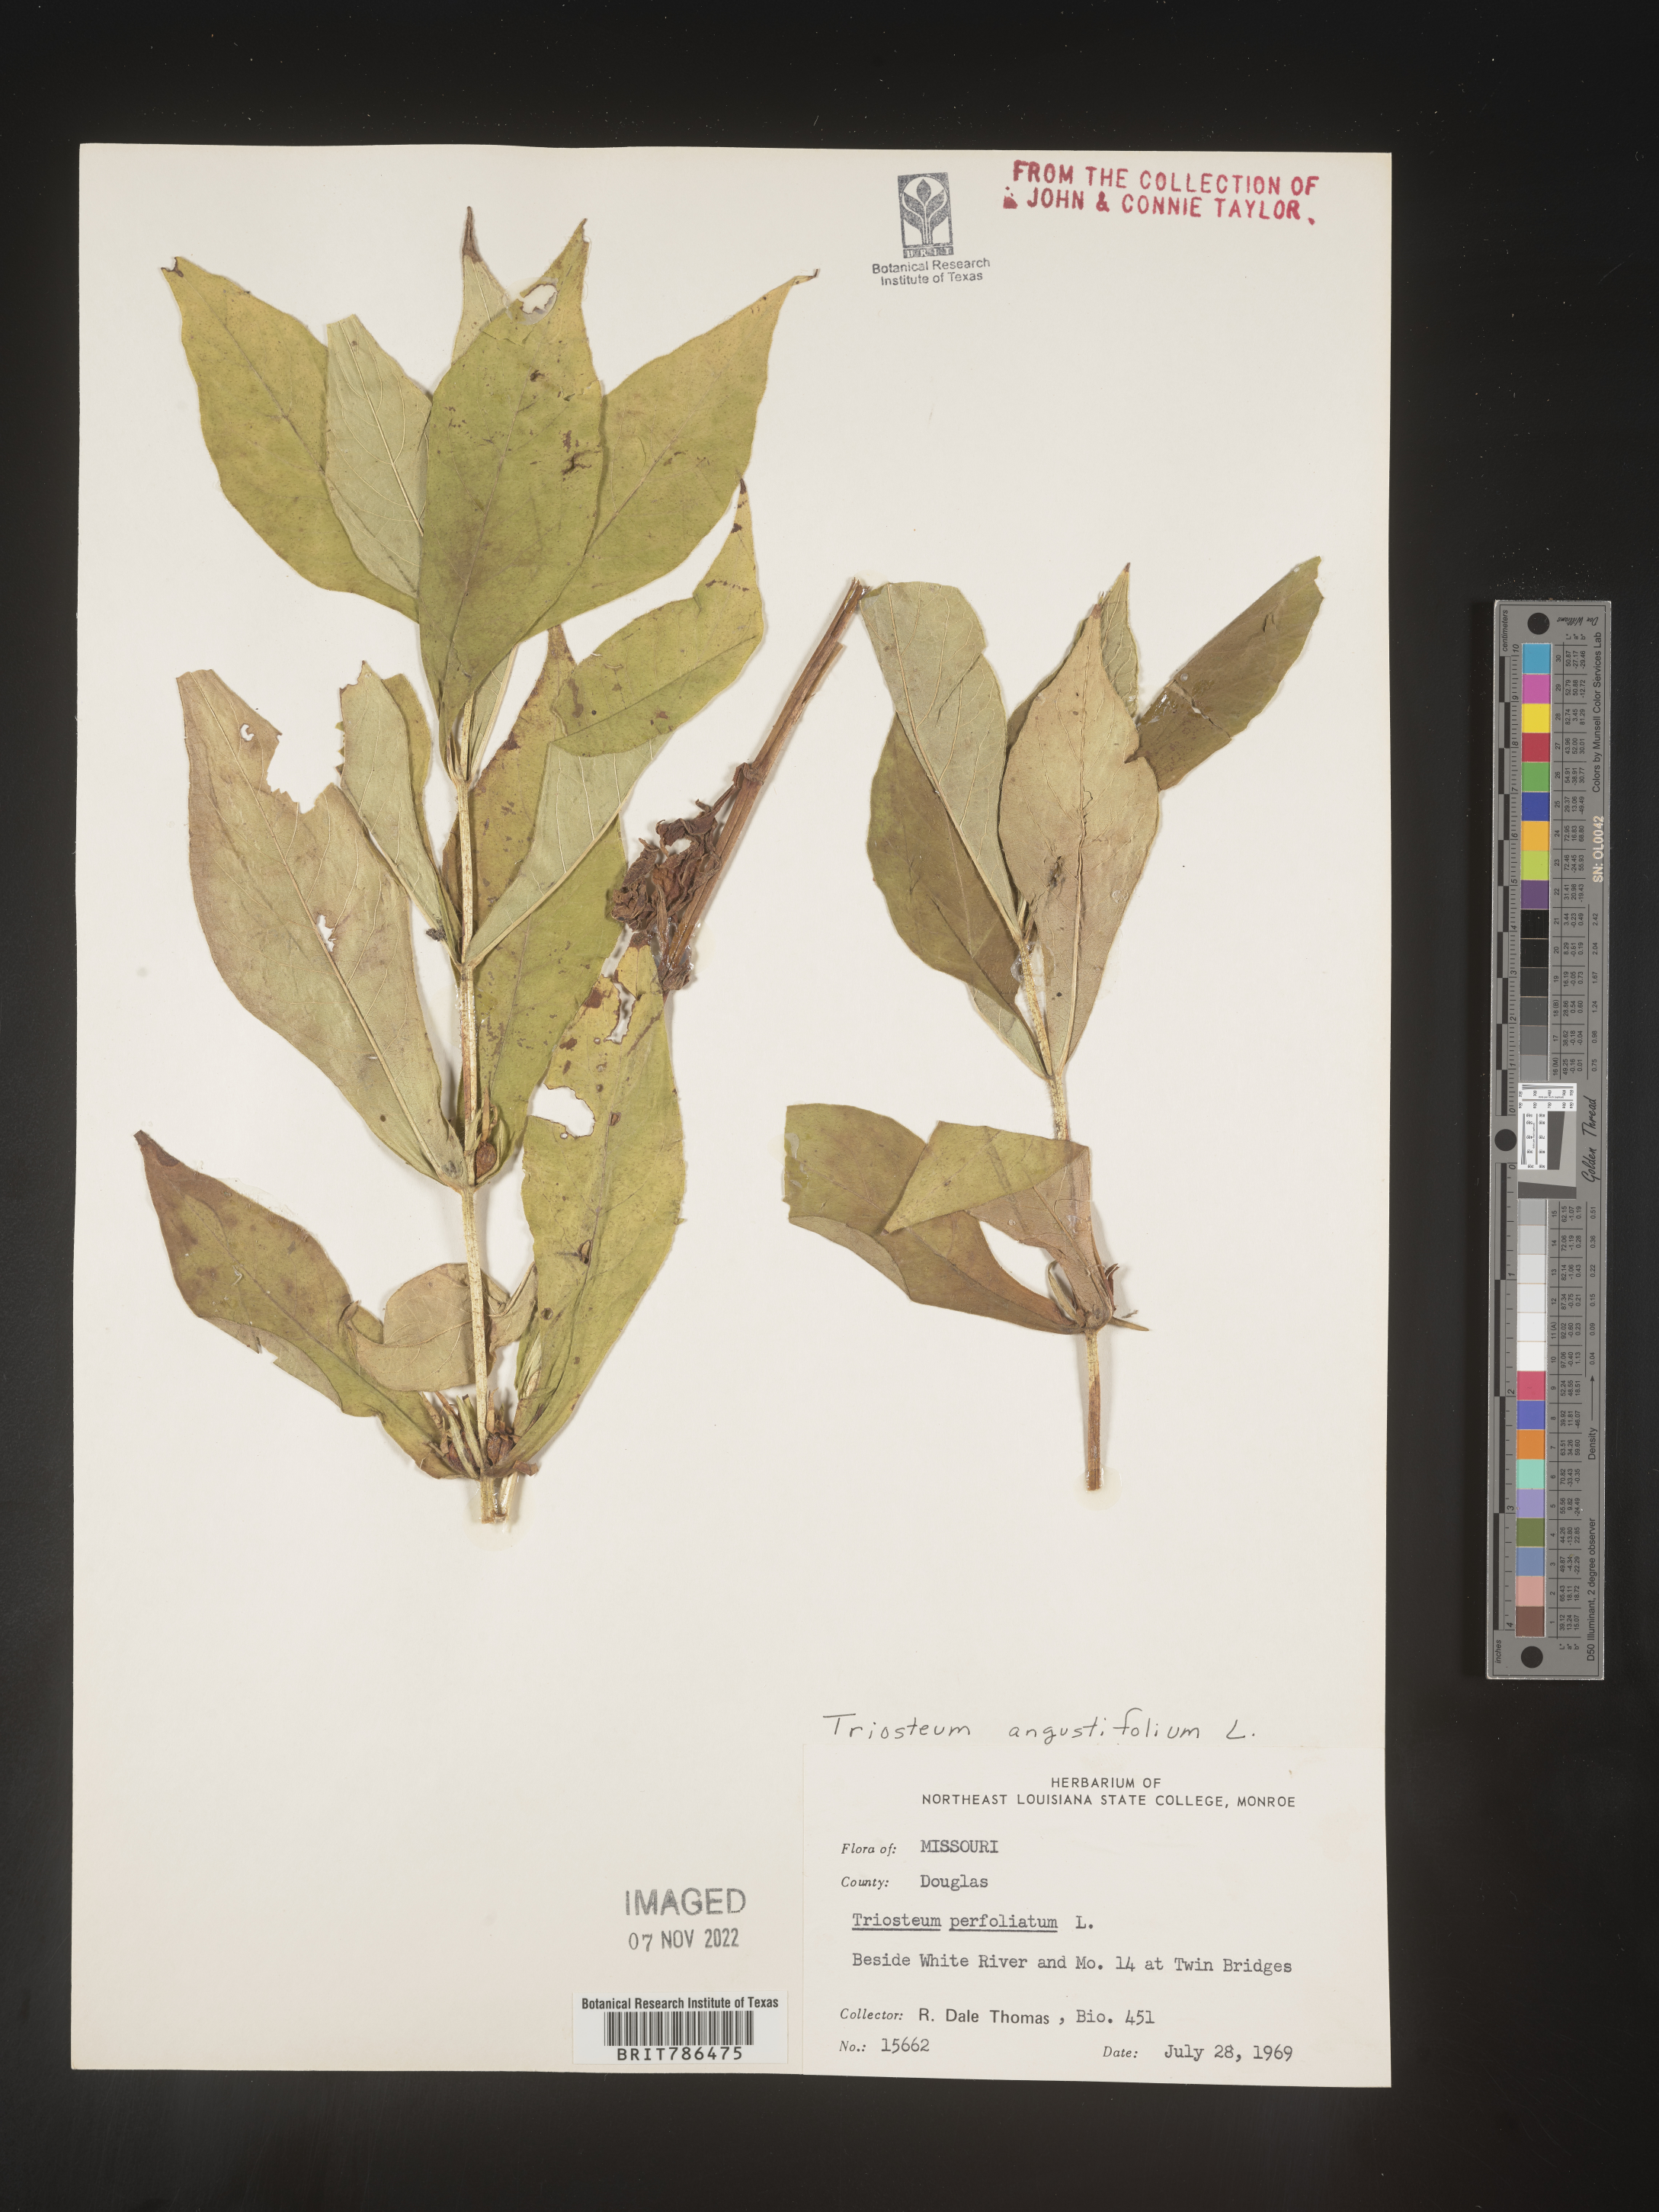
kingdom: Plantae
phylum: Tracheophyta
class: Magnoliopsida
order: Dipsacales
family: Caprifoliaceae
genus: Triosteum
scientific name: Triosteum angustifolium
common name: Narrow-leaved horse-gentian
